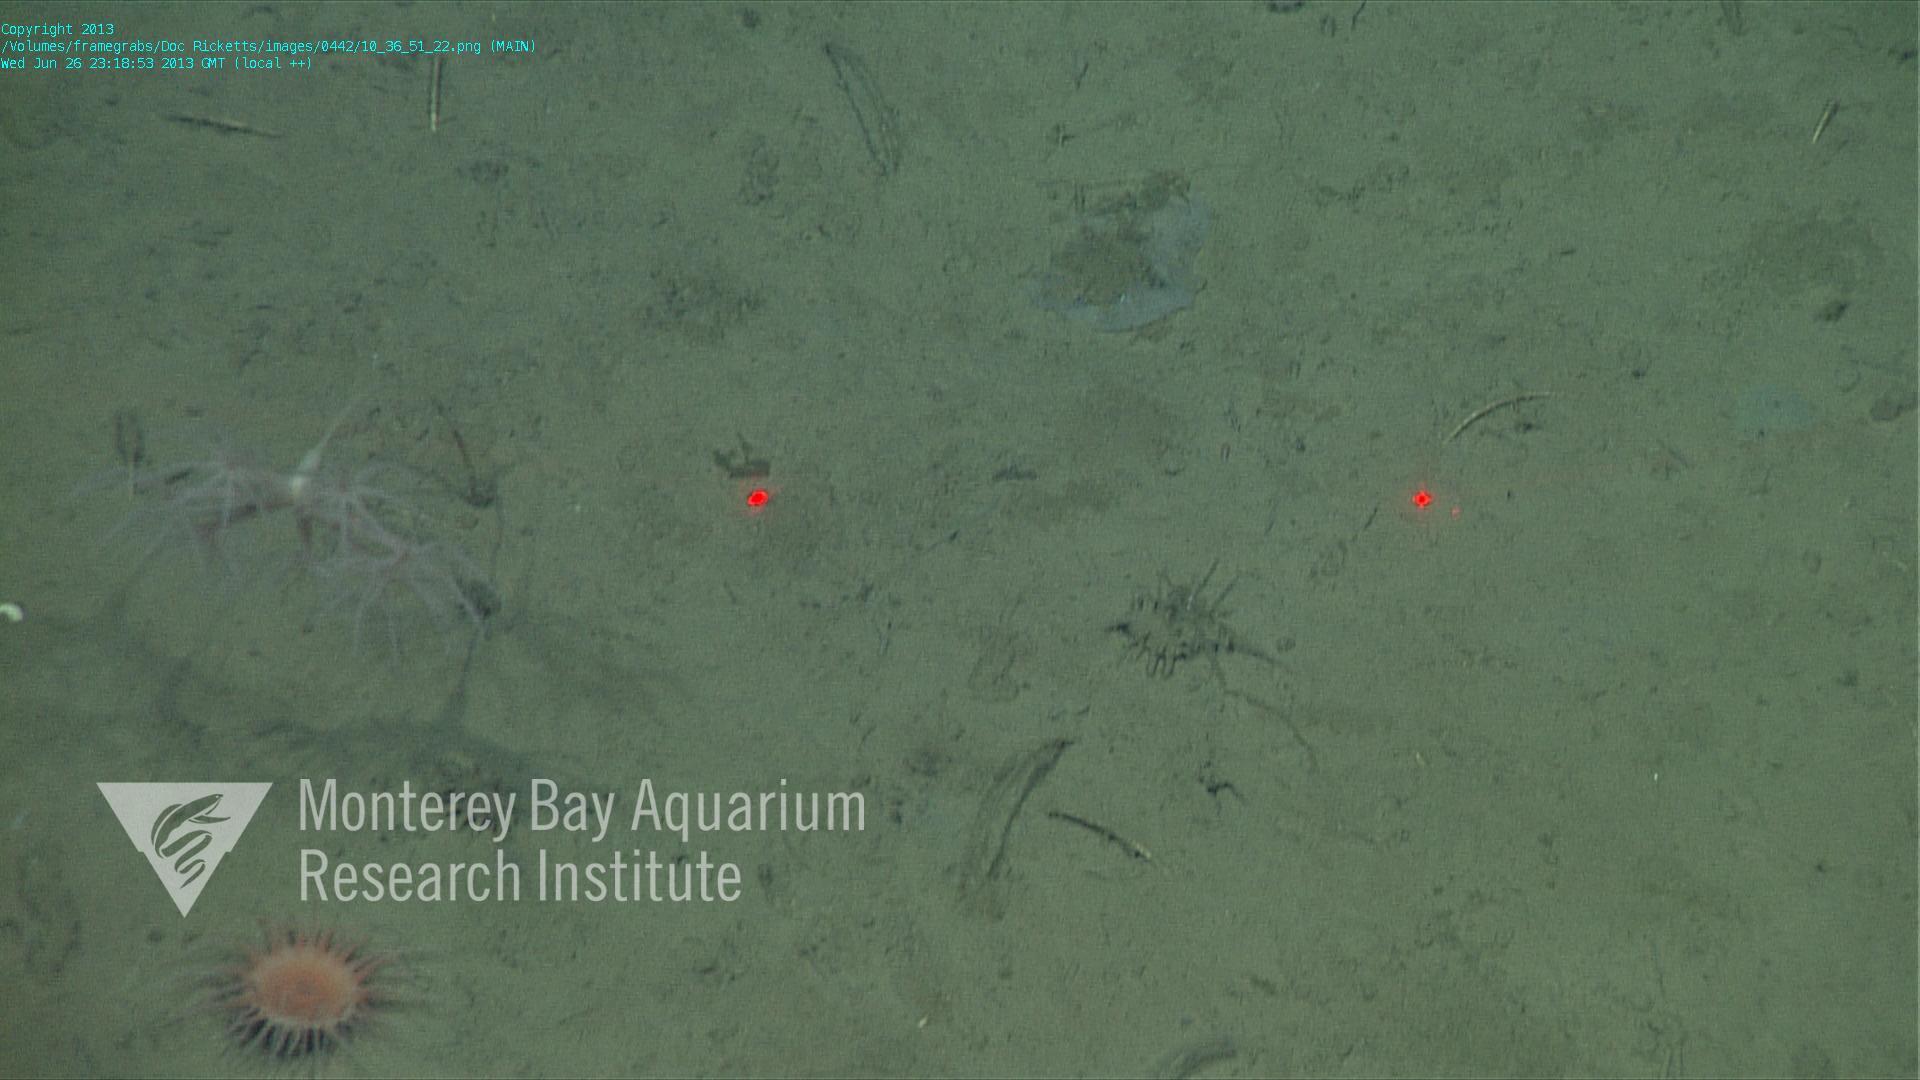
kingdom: Animalia
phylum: Porifera
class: Hexactinellida
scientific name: Hexactinellida
